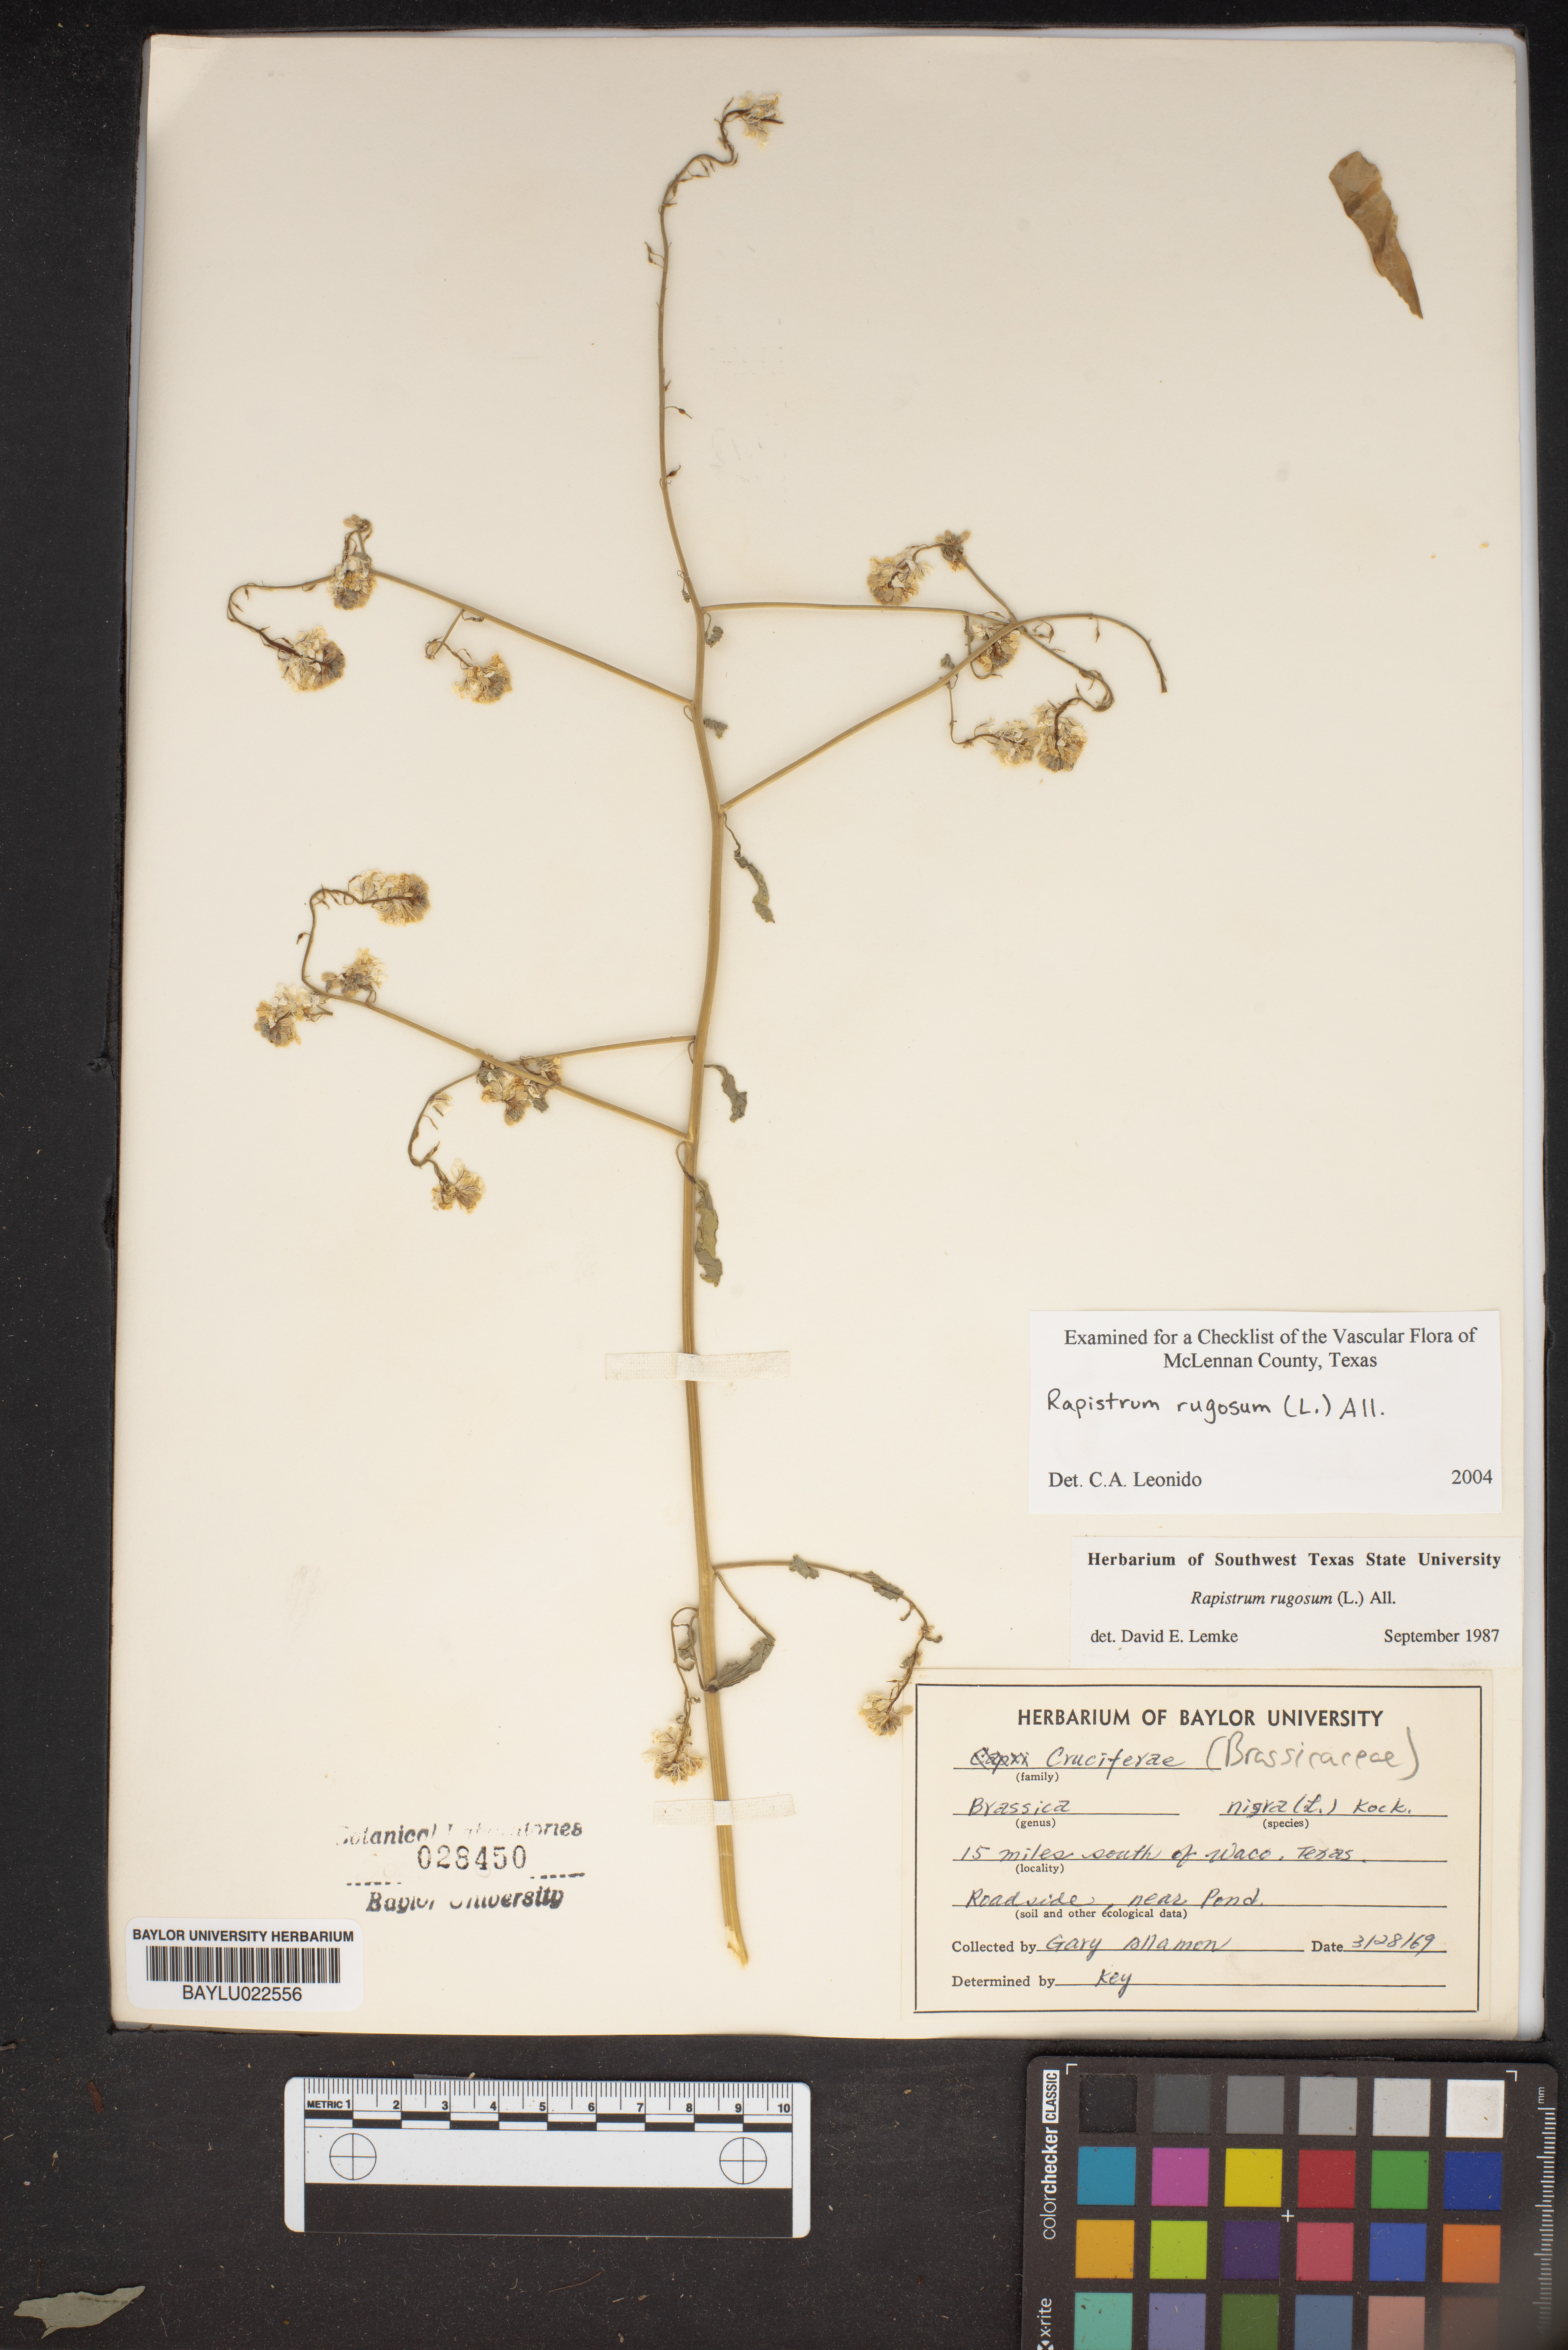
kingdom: Plantae
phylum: Tracheophyta
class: Magnoliopsida
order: Brassicales
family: Brassicaceae
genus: Rapistrum
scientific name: Rapistrum rugosum
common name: Annual bastardcabbage
